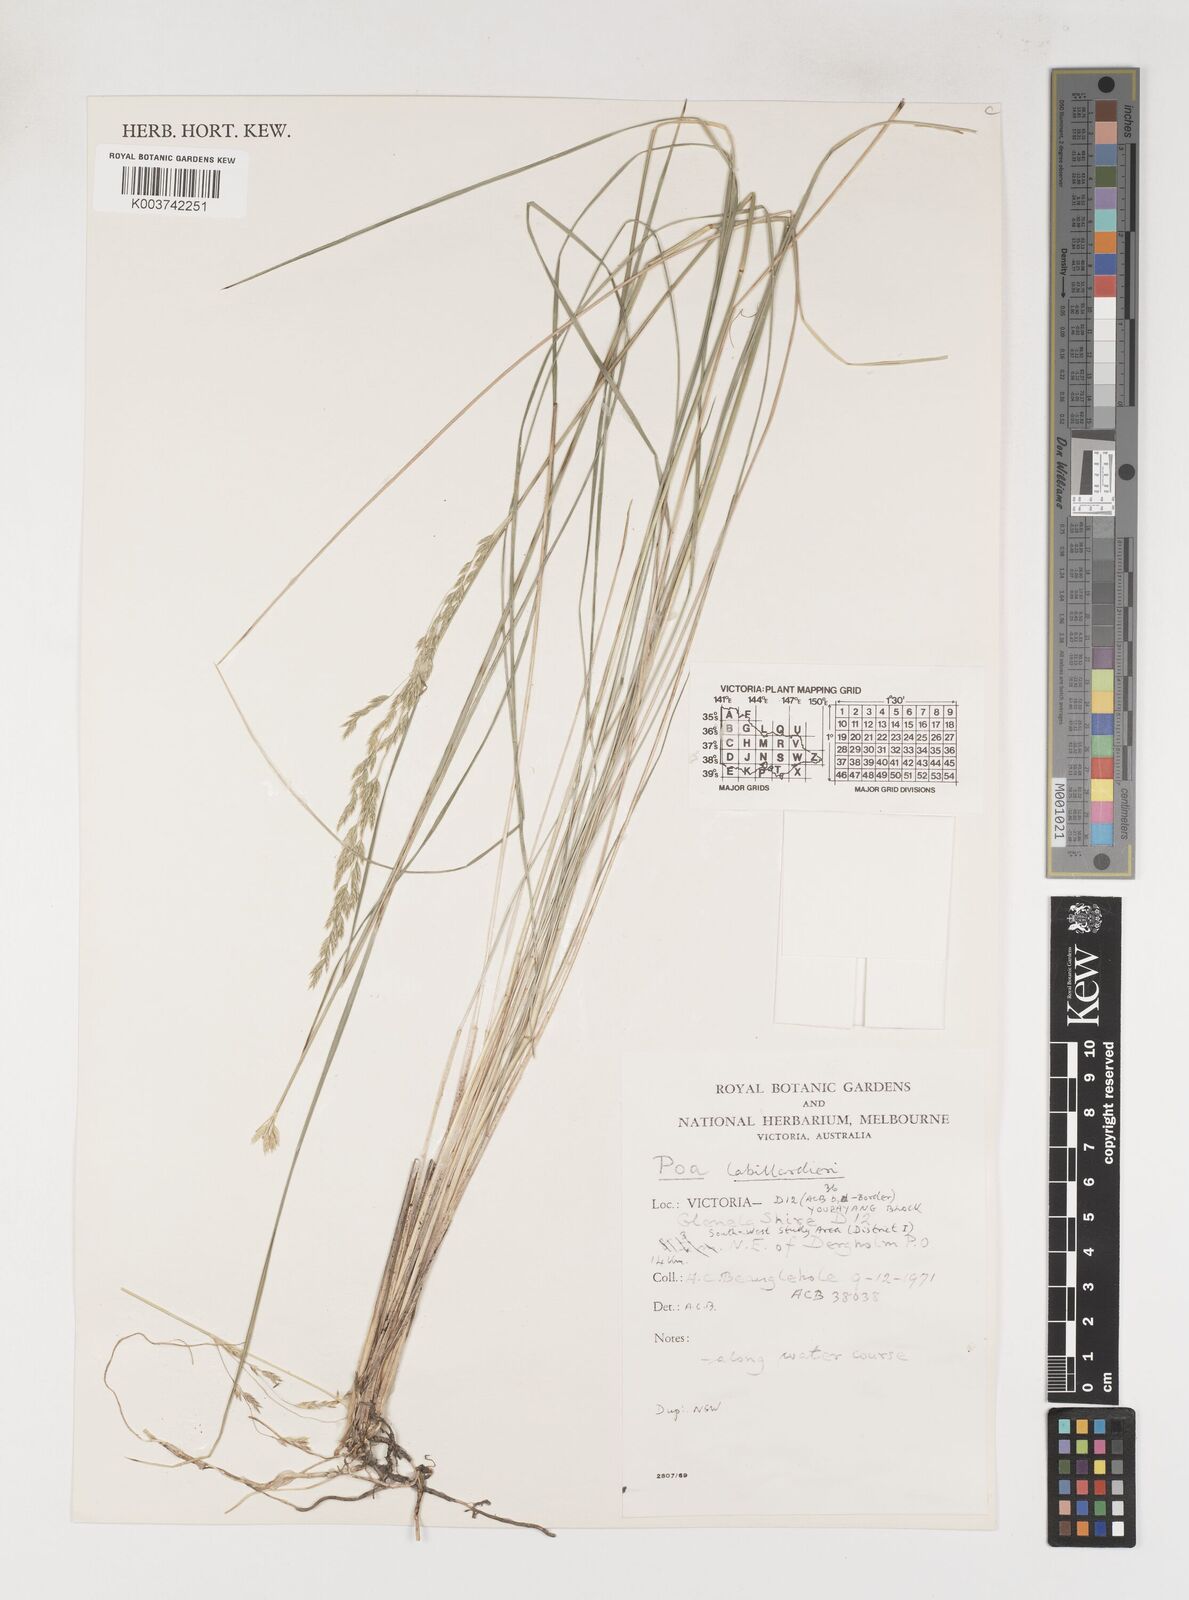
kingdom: Plantae
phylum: Tracheophyta
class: Liliopsida
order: Poales
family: Poaceae
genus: Poa
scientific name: Poa labillardierei
